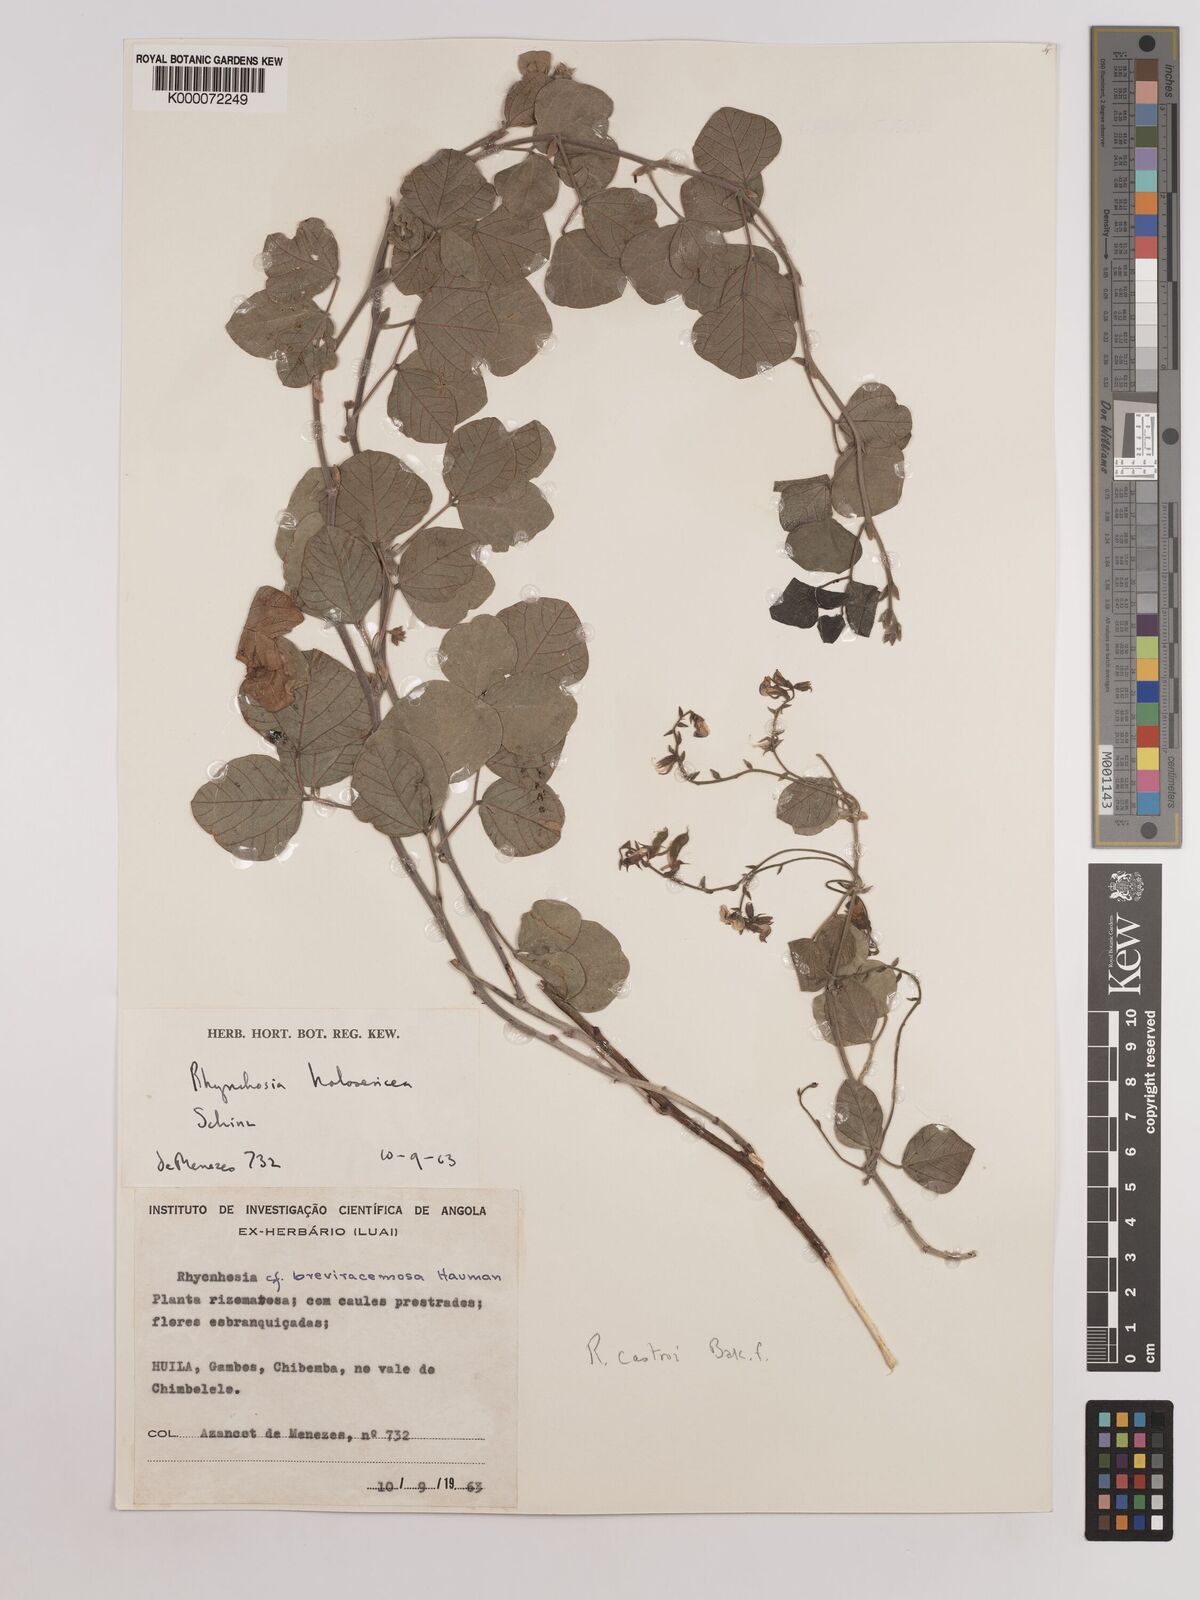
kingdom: Plantae
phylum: Tracheophyta
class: Magnoliopsida
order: Fabales
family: Fabaceae
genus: Rhynchosia
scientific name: Rhynchosia castroi
